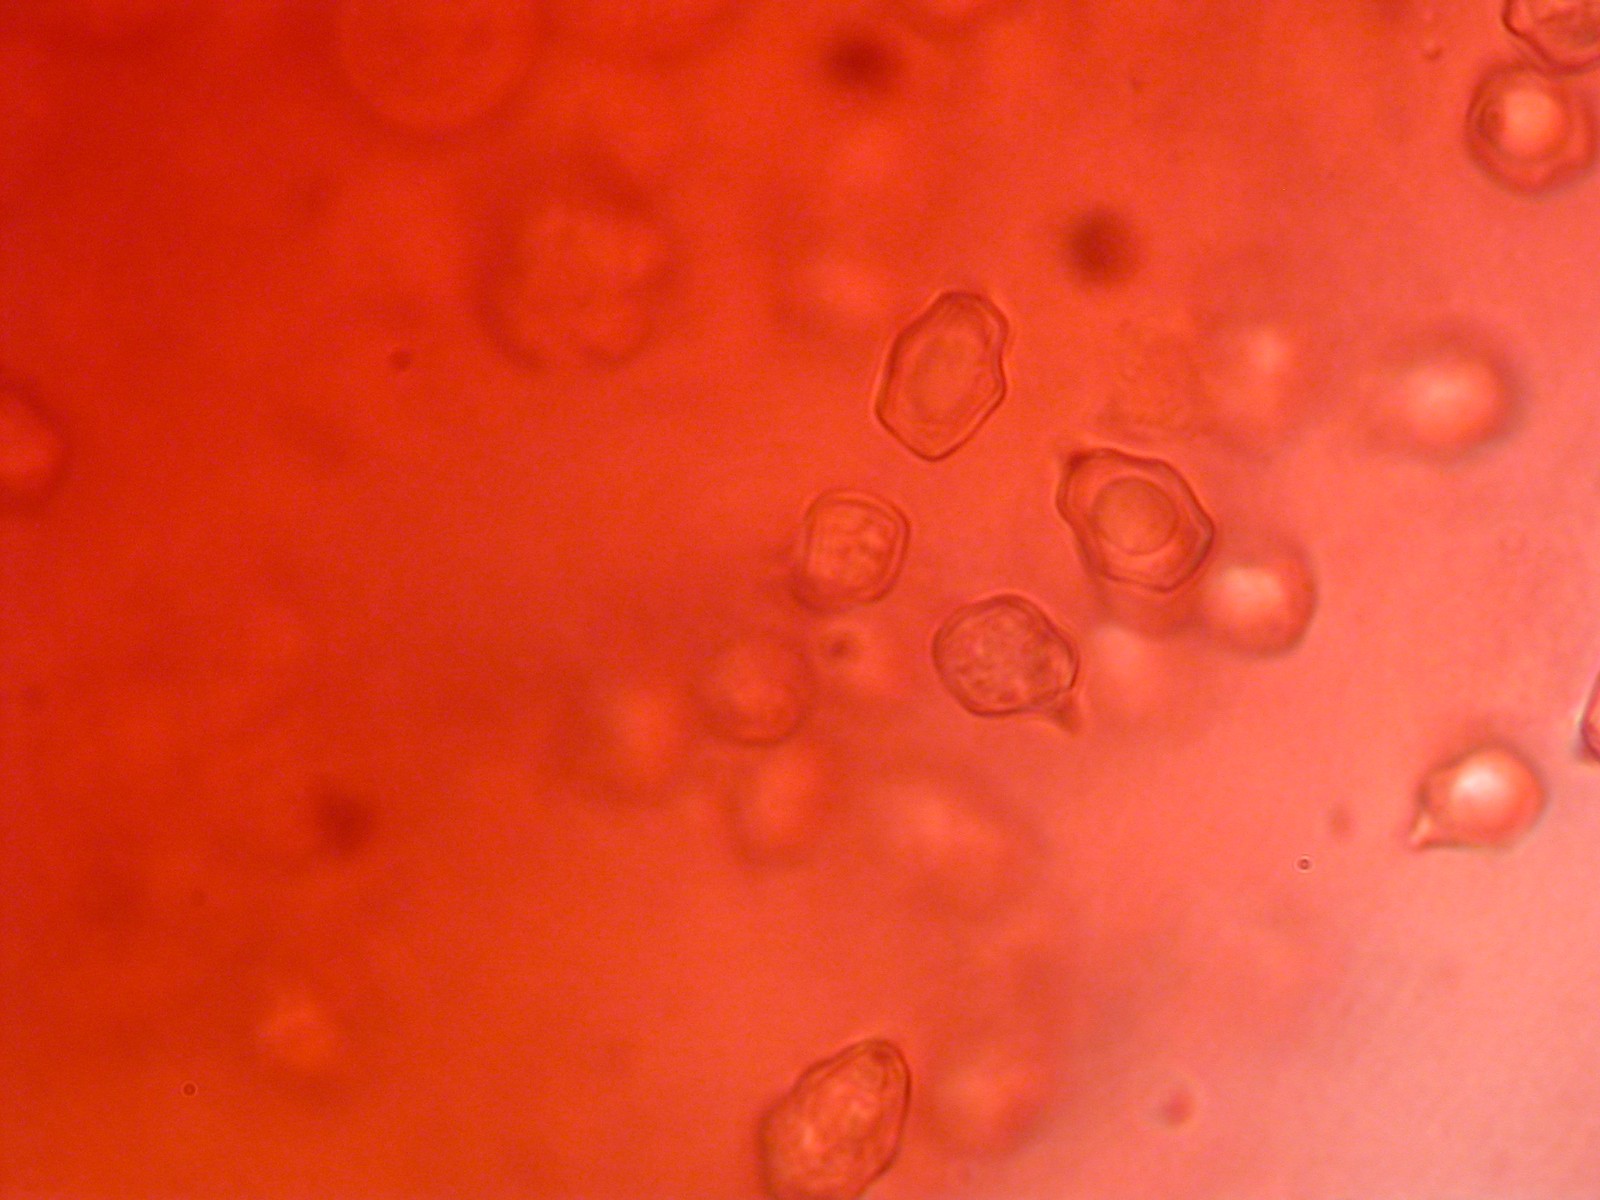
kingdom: Fungi
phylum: Basidiomycota
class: Agaricomycetes
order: Agaricales
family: Entolomataceae
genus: Entoloma
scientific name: Entoloma fuscotomentosum
